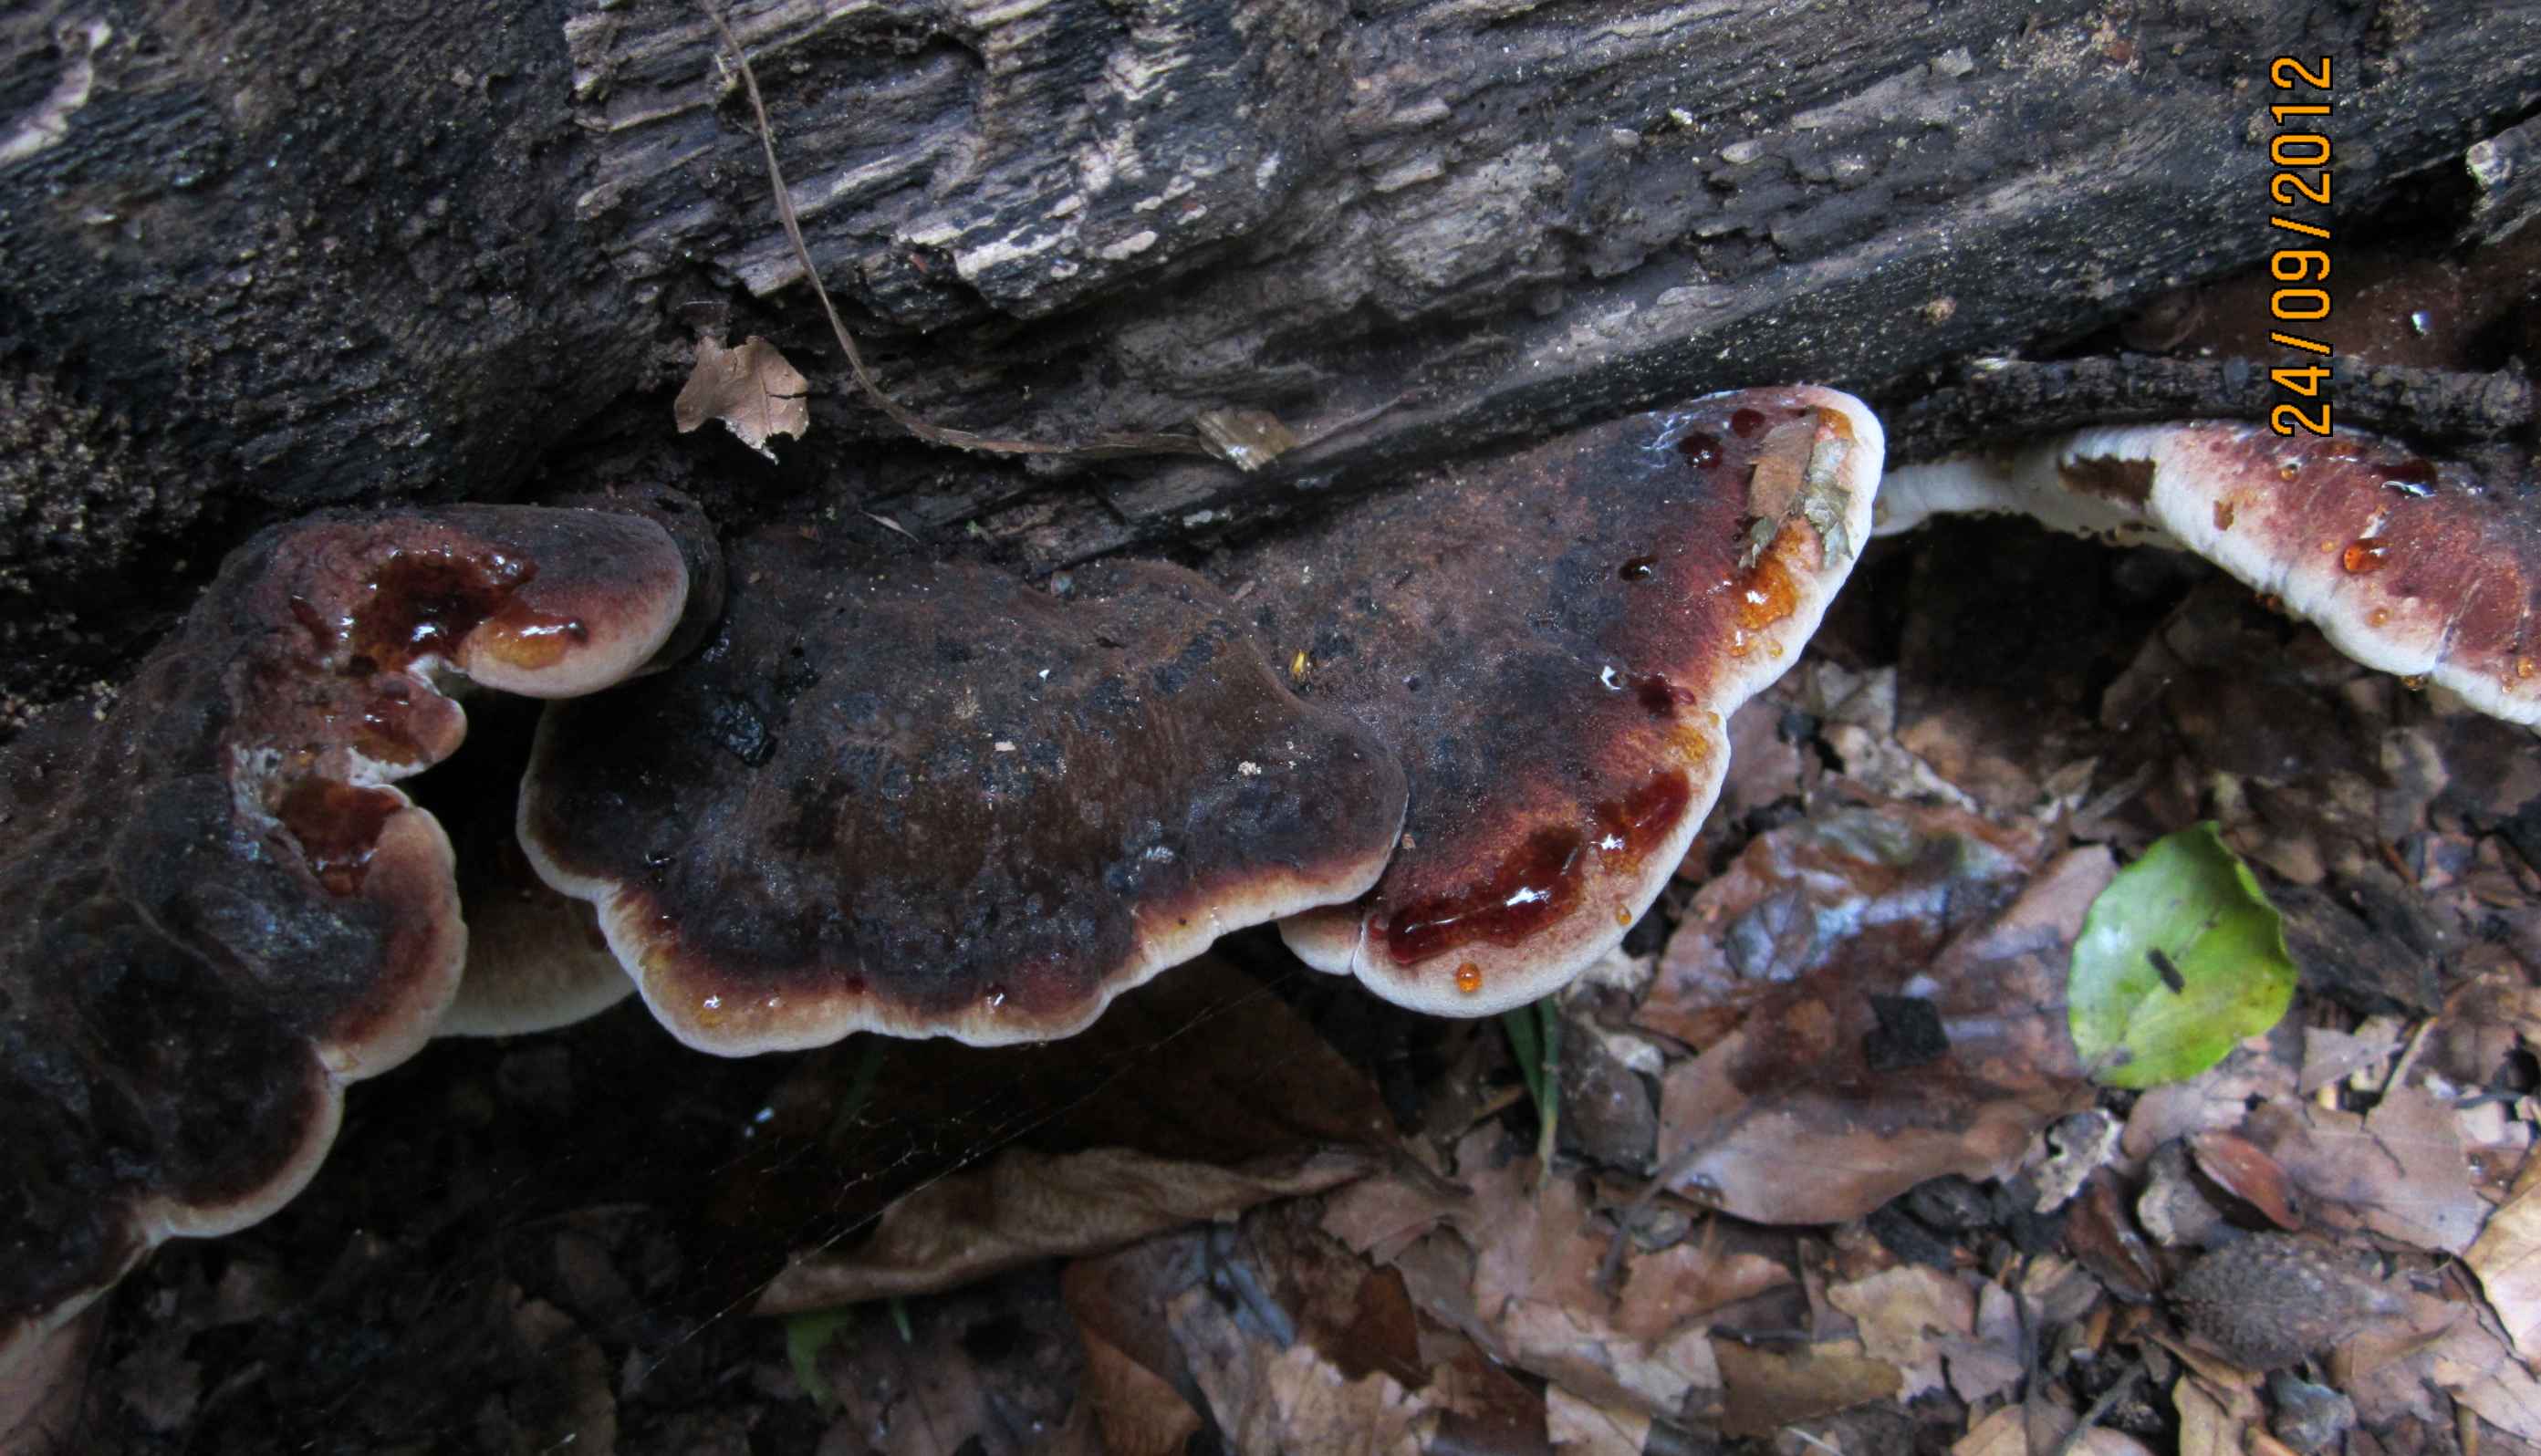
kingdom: Fungi
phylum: Basidiomycota
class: Agaricomycetes
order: Polyporales
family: Ischnodermataceae
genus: Ischnoderma
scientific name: Ischnoderma resinosum
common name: løv-tjæreporesvamp
